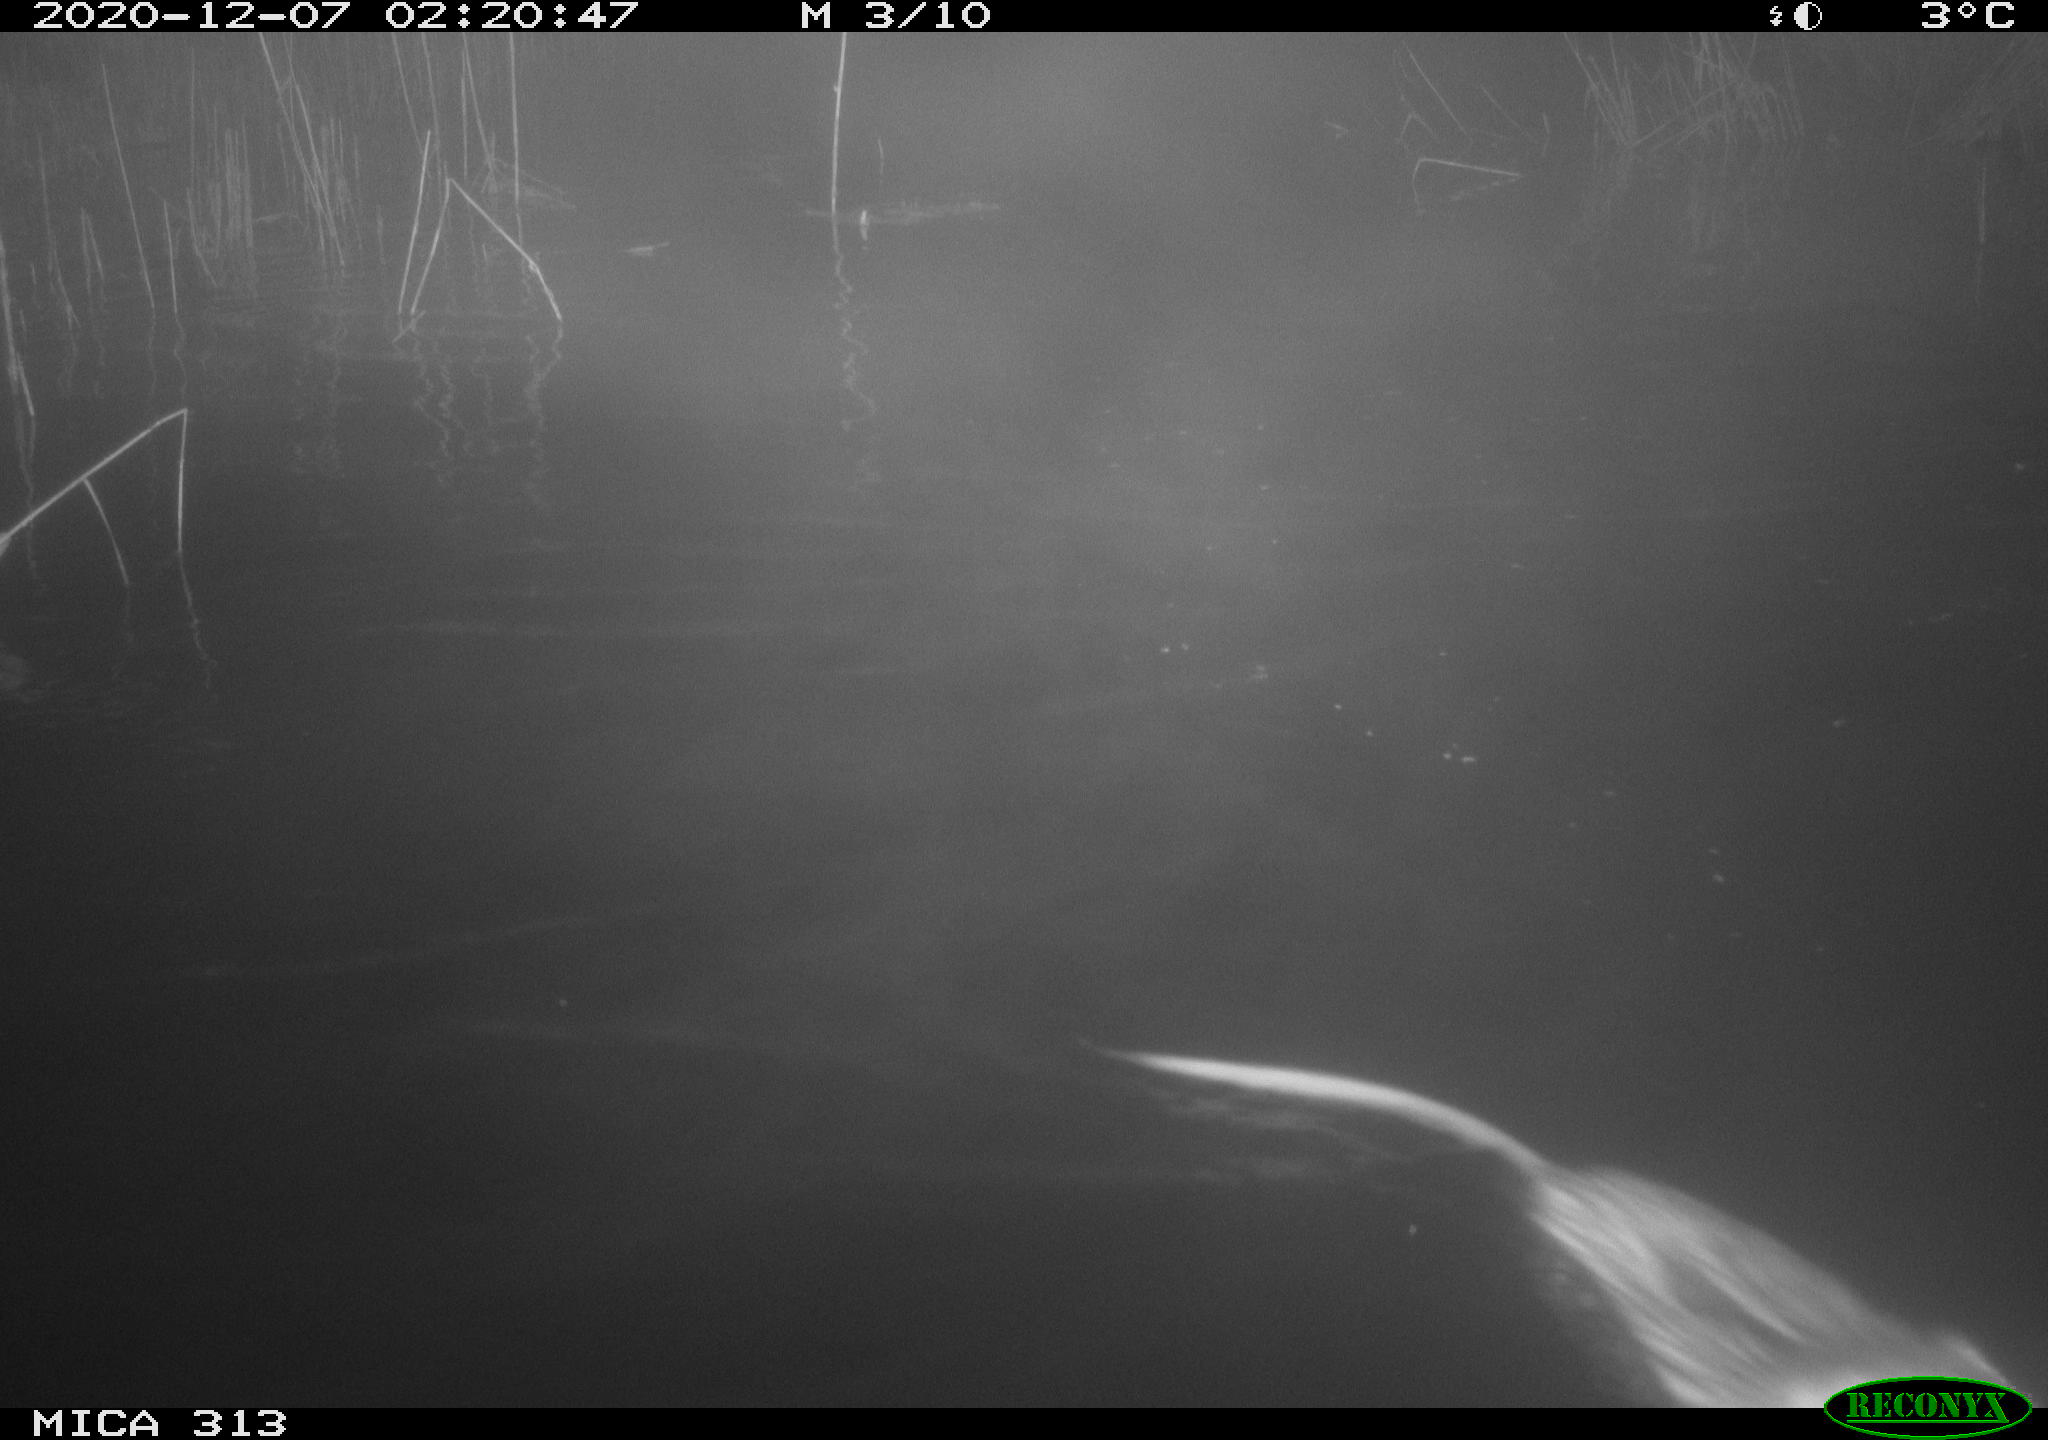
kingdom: Animalia
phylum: Chordata
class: Mammalia
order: Rodentia
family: Cricetidae
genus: Ondatra
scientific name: Ondatra zibethicus
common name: Muskrat
